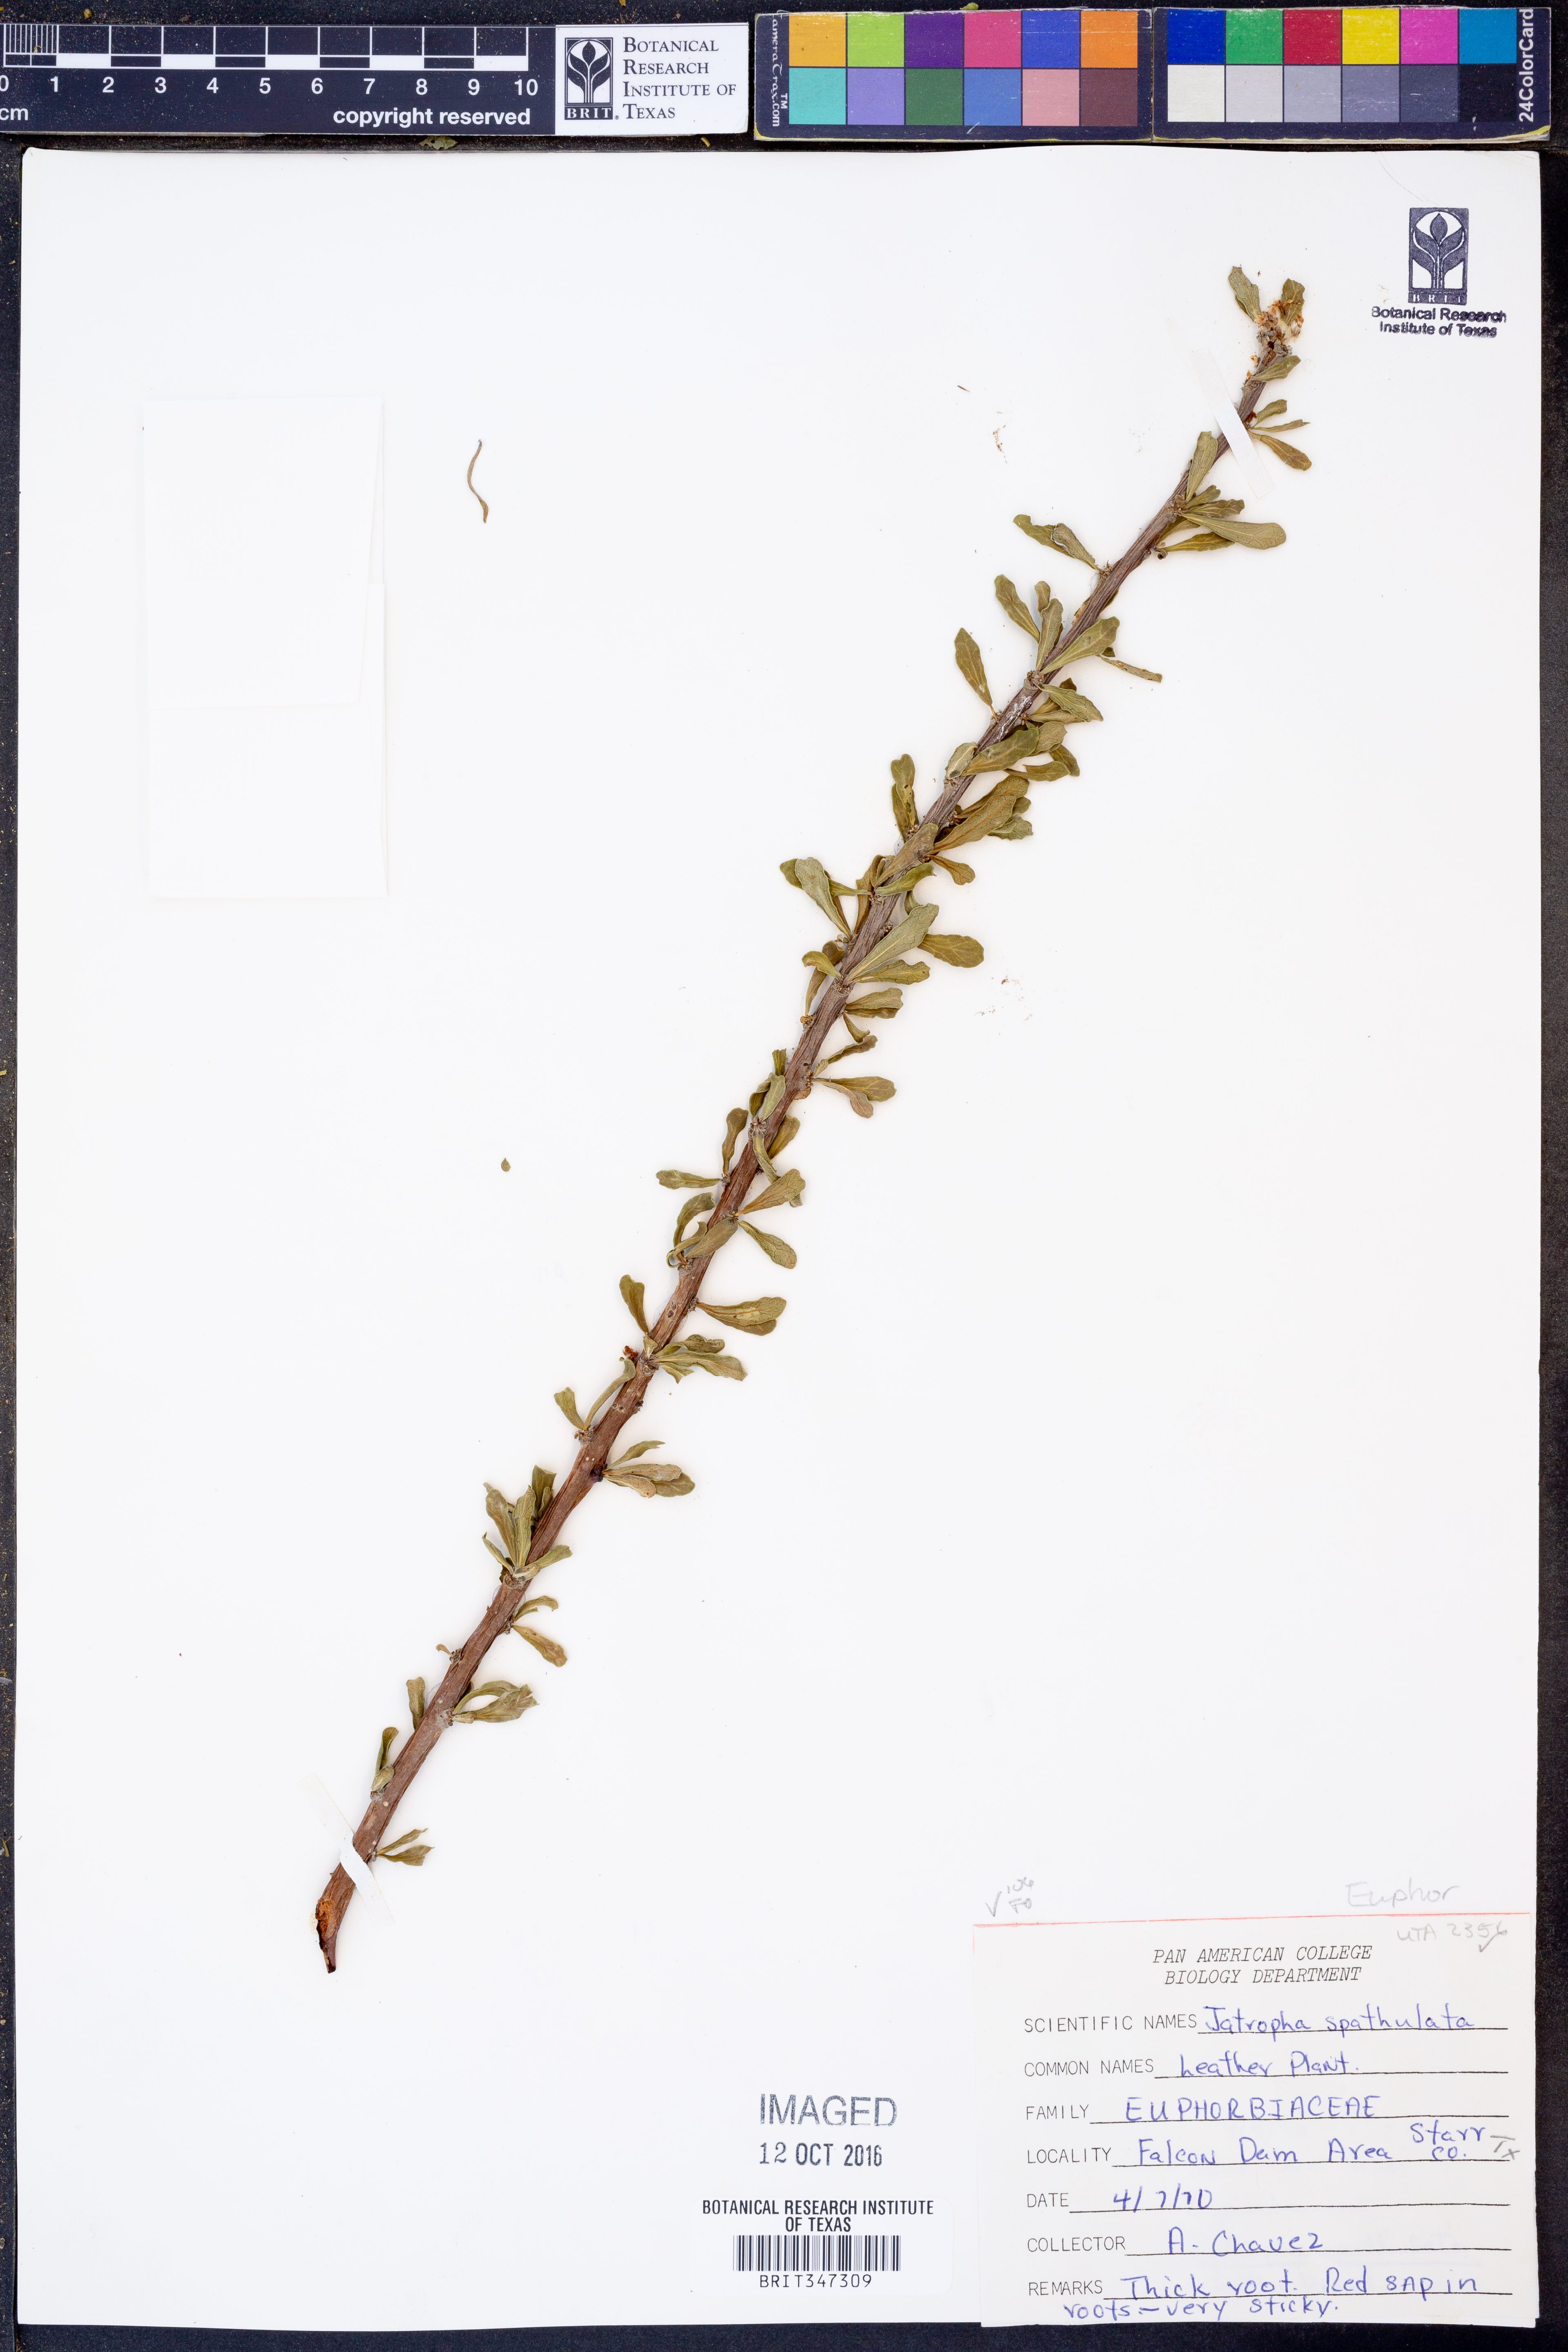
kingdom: Plantae
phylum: Tracheophyta
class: Magnoliopsida
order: Malpighiales
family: Euphorbiaceae
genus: Jatropha
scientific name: Jatropha dioica
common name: Leatherstem
